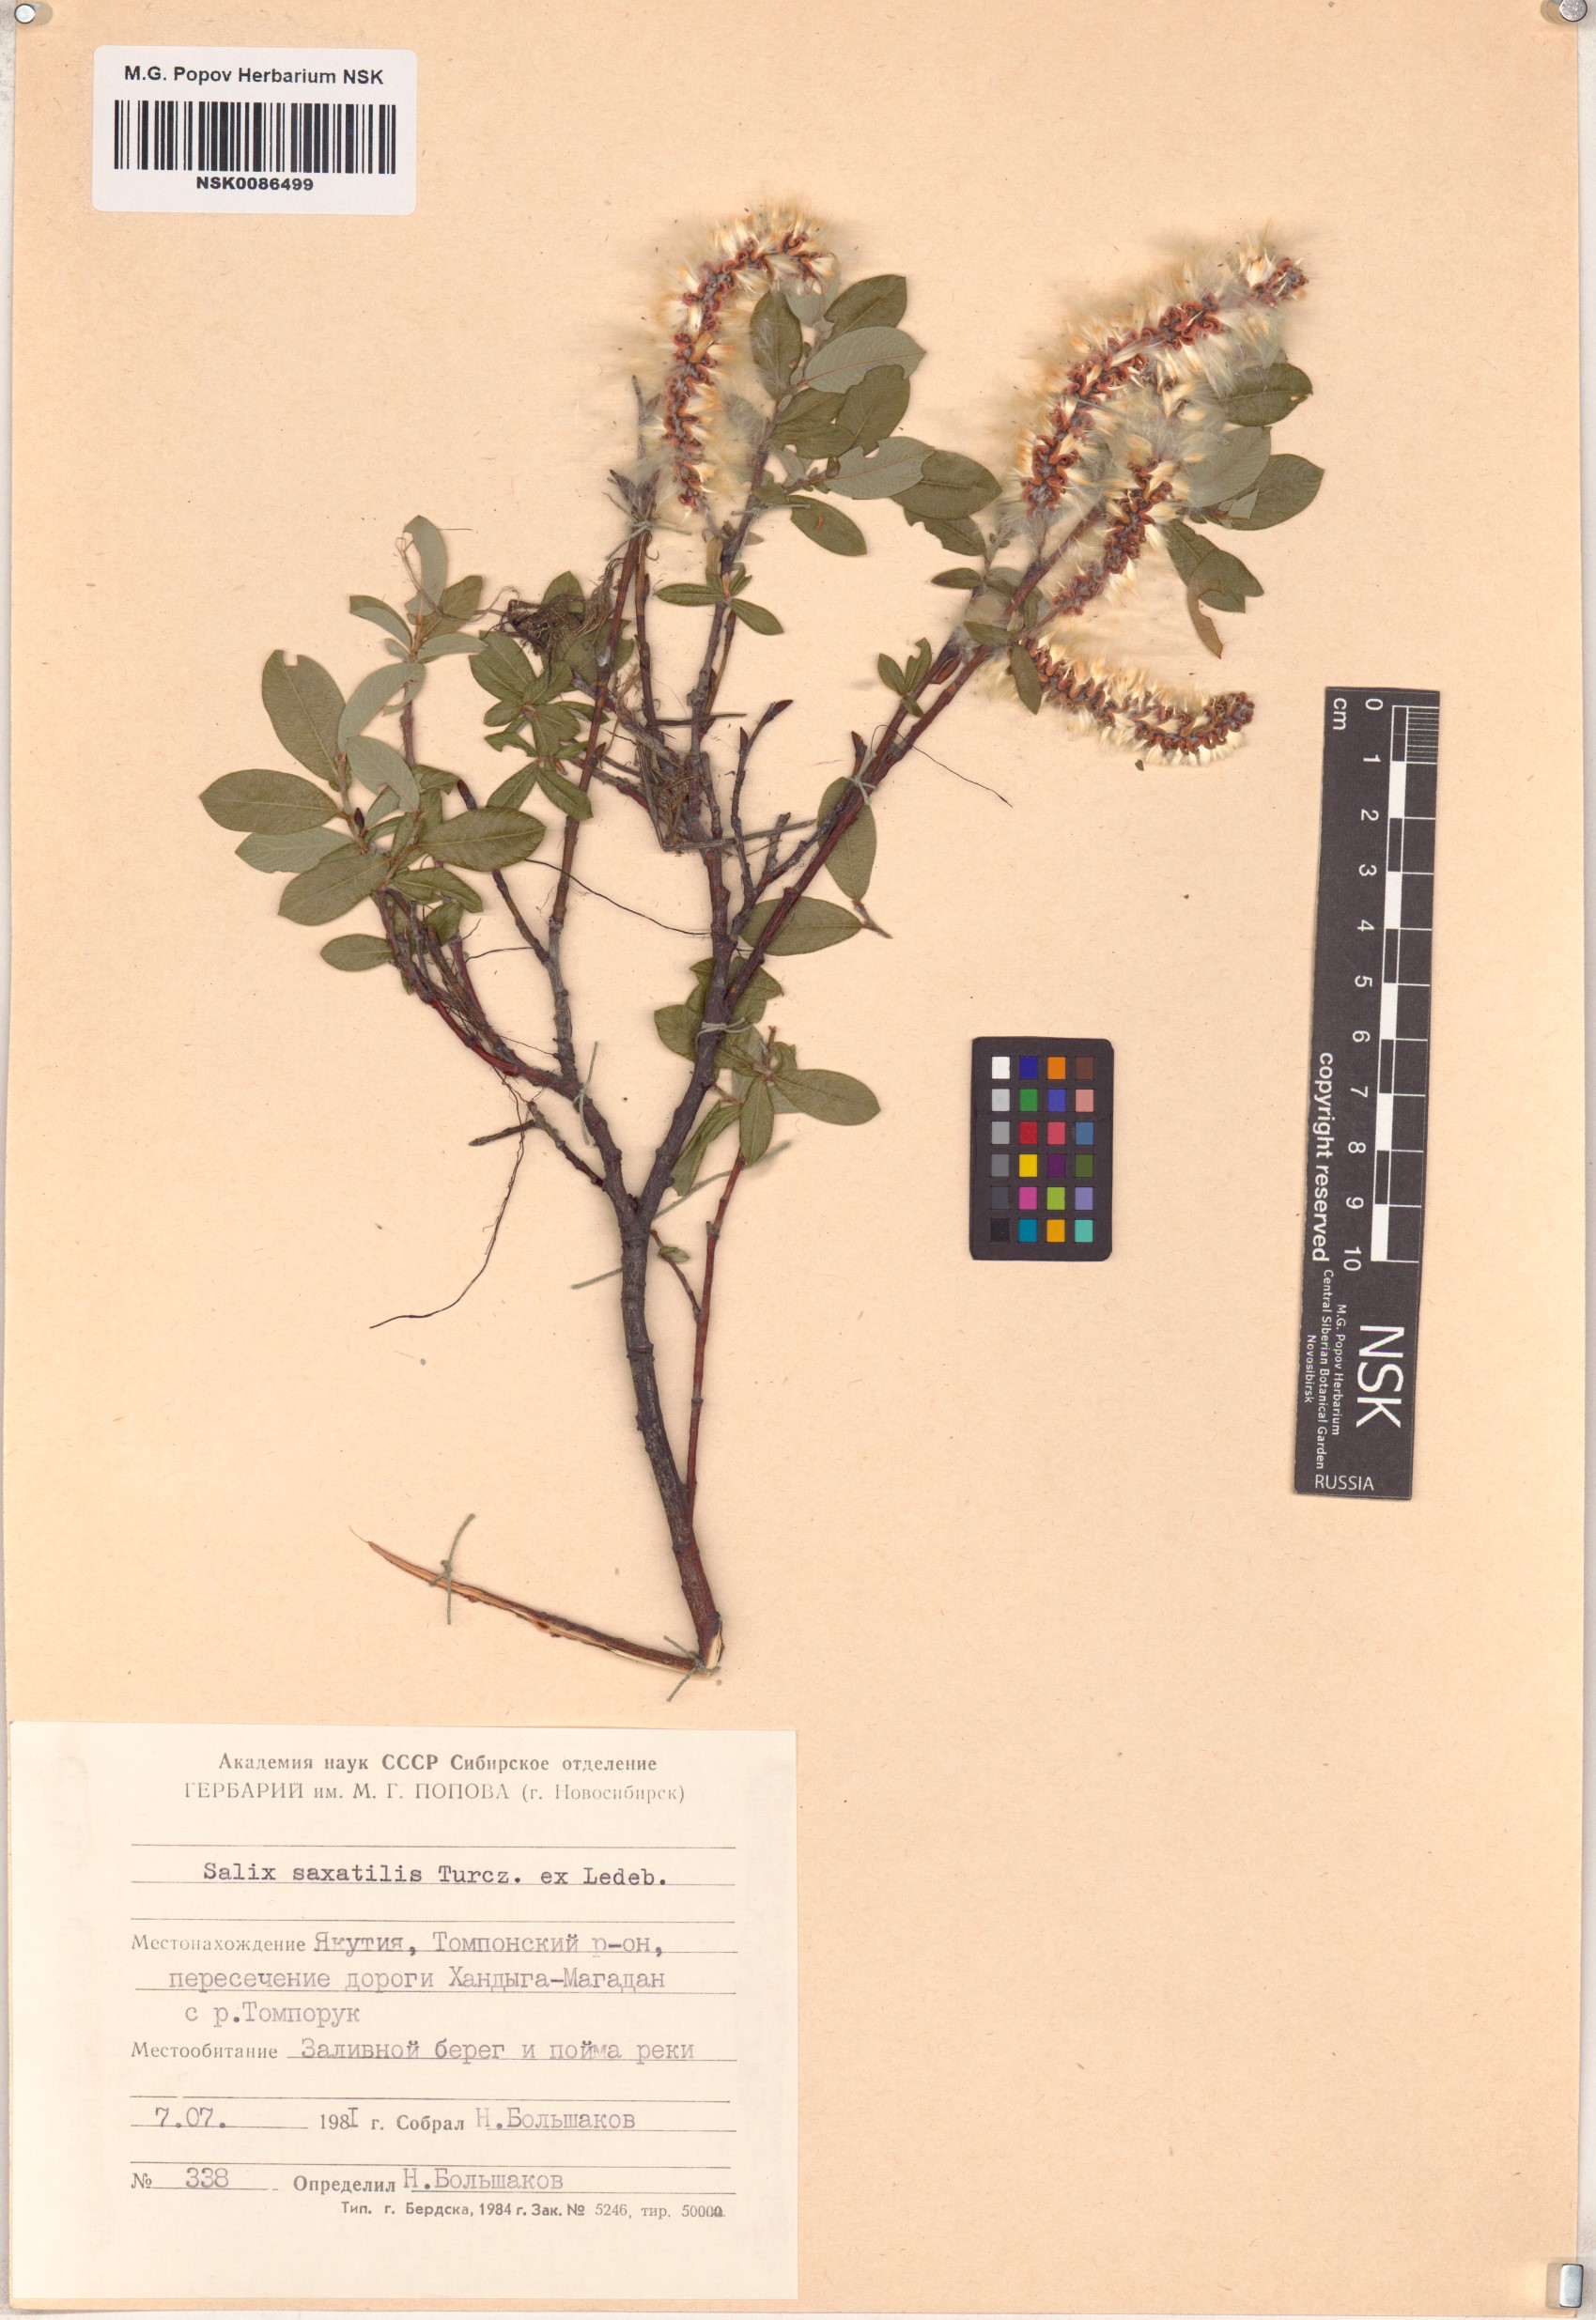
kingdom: Plantae
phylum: Tracheophyta
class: Magnoliopsida
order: Malpighiales
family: Salicaceae
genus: Salix
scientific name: Salix saxatilis
